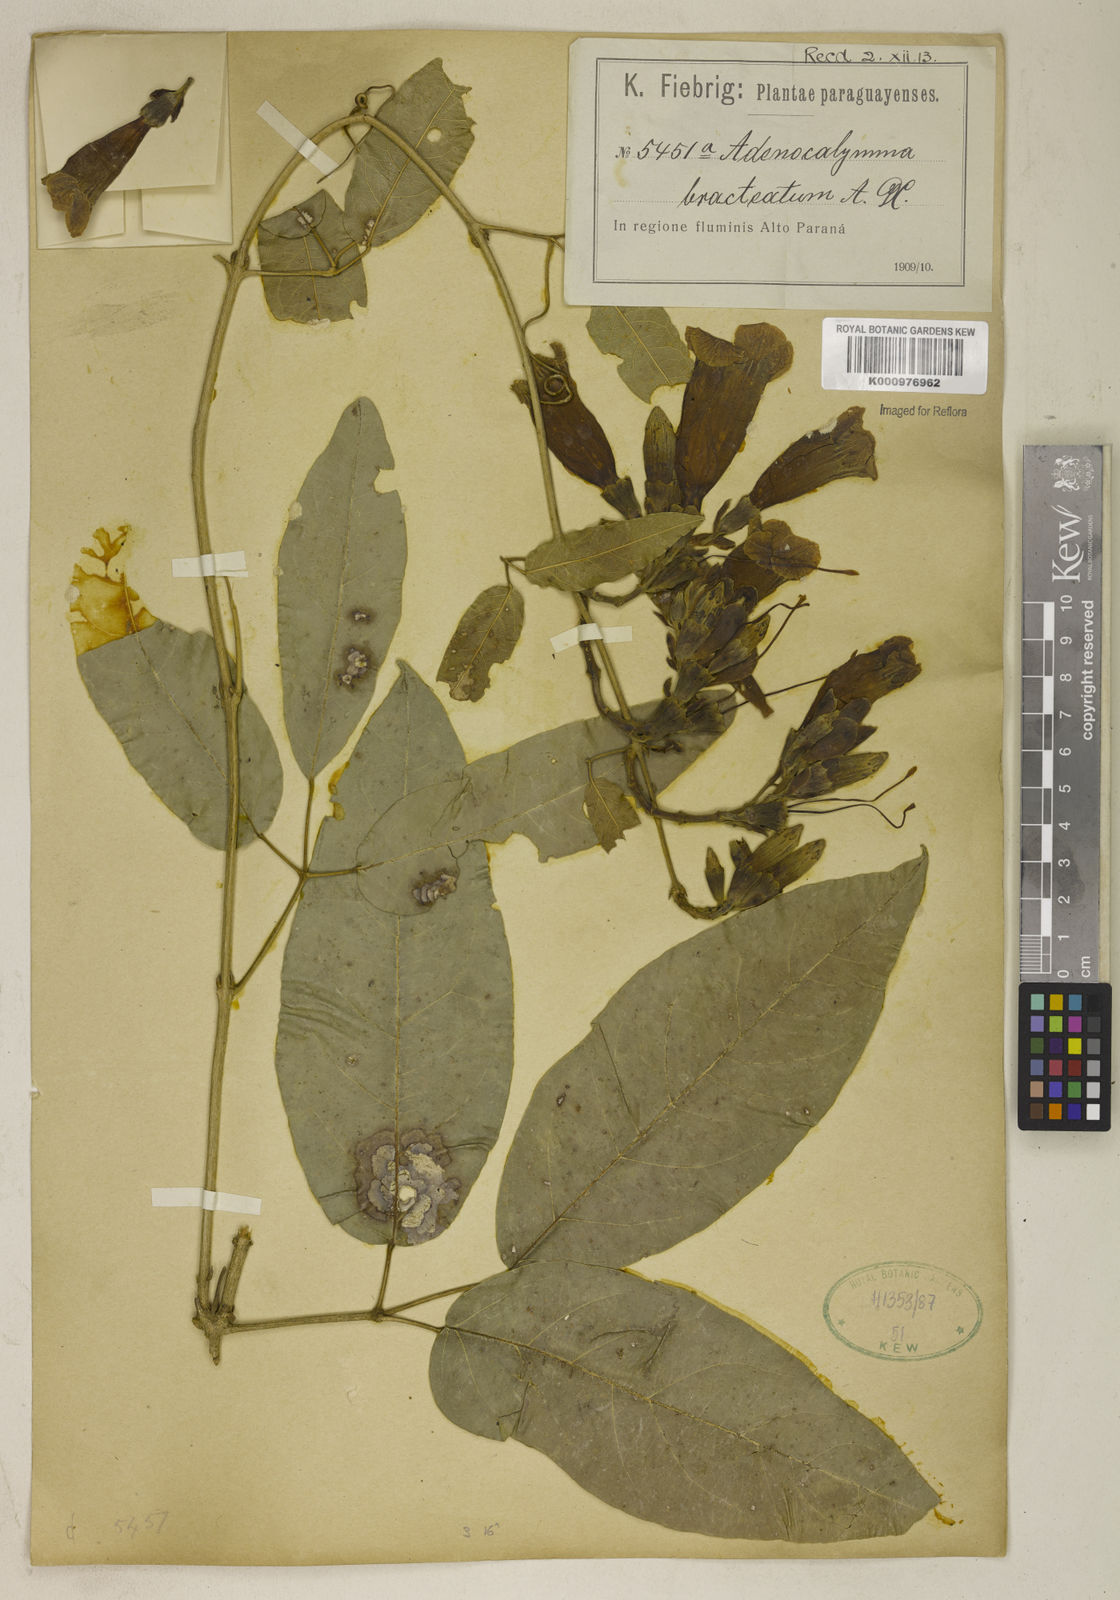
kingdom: Plantae
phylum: Tracheophyta
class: Magnoliopsida
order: Lamiales
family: Bignoniaceae
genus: Adenocalymma
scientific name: Adenocalymma bracteatum
